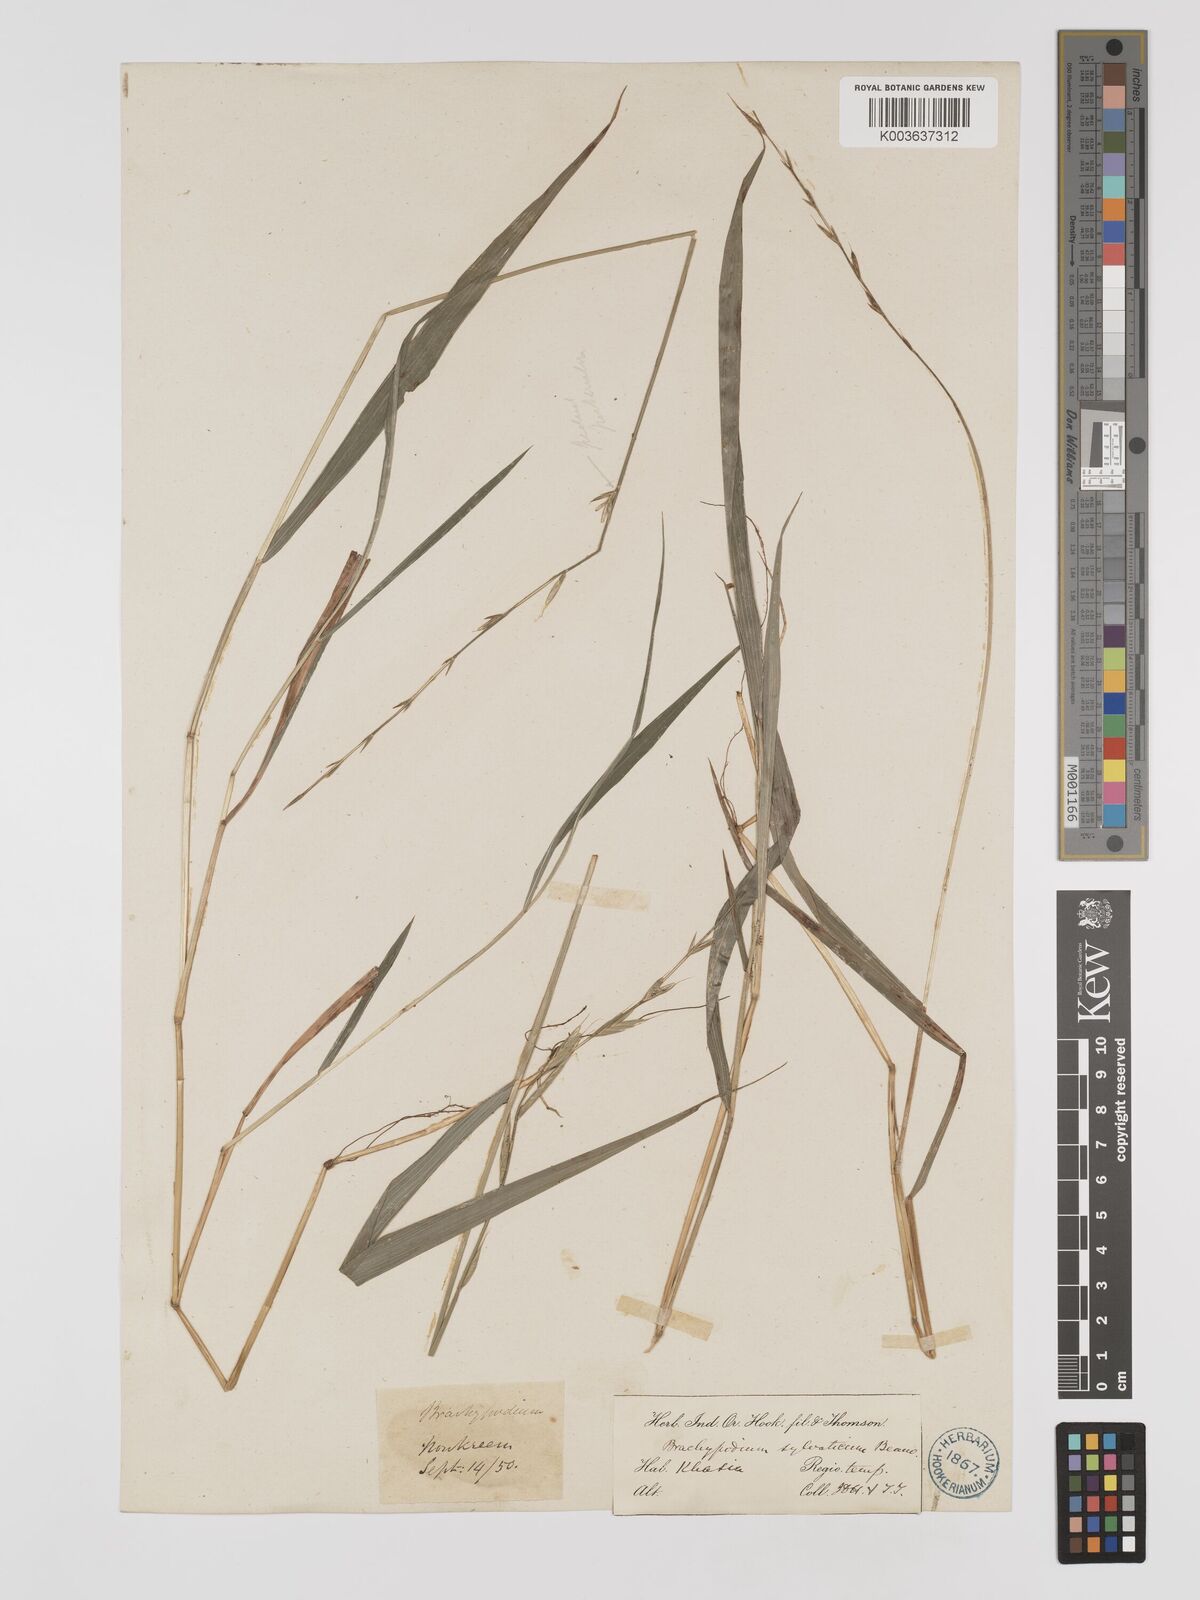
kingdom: Plantae
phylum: Tracheophyta
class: Liliopsida
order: Poales
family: Poaceae
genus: Brachypodium
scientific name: Brachypodium sylvaticum
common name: False-brome
